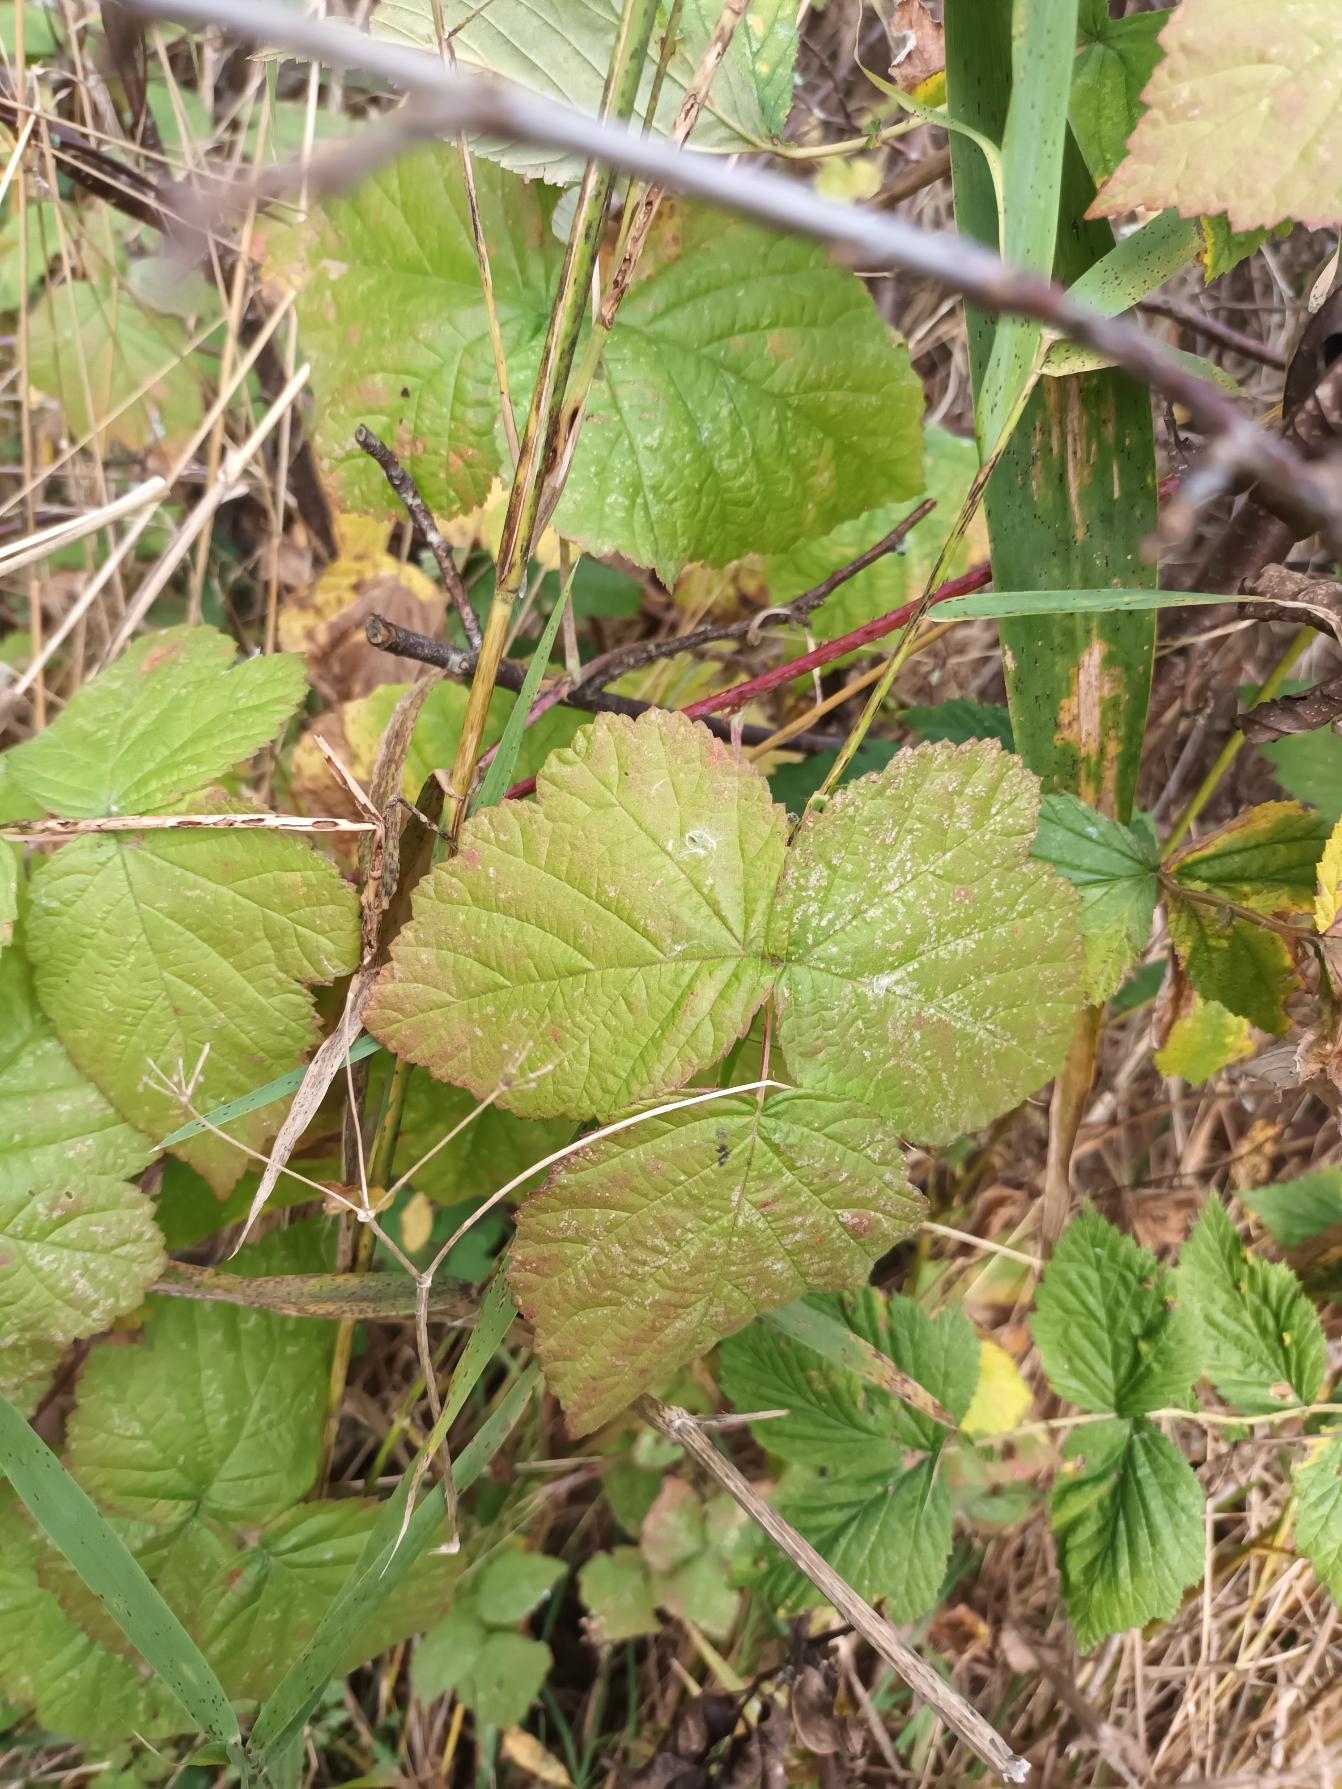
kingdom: Plantae
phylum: Tracheophyta
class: Magnoliopsida
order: Rosales
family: Rosaceae
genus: Rubus
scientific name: Rubus caesius
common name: Korbær
